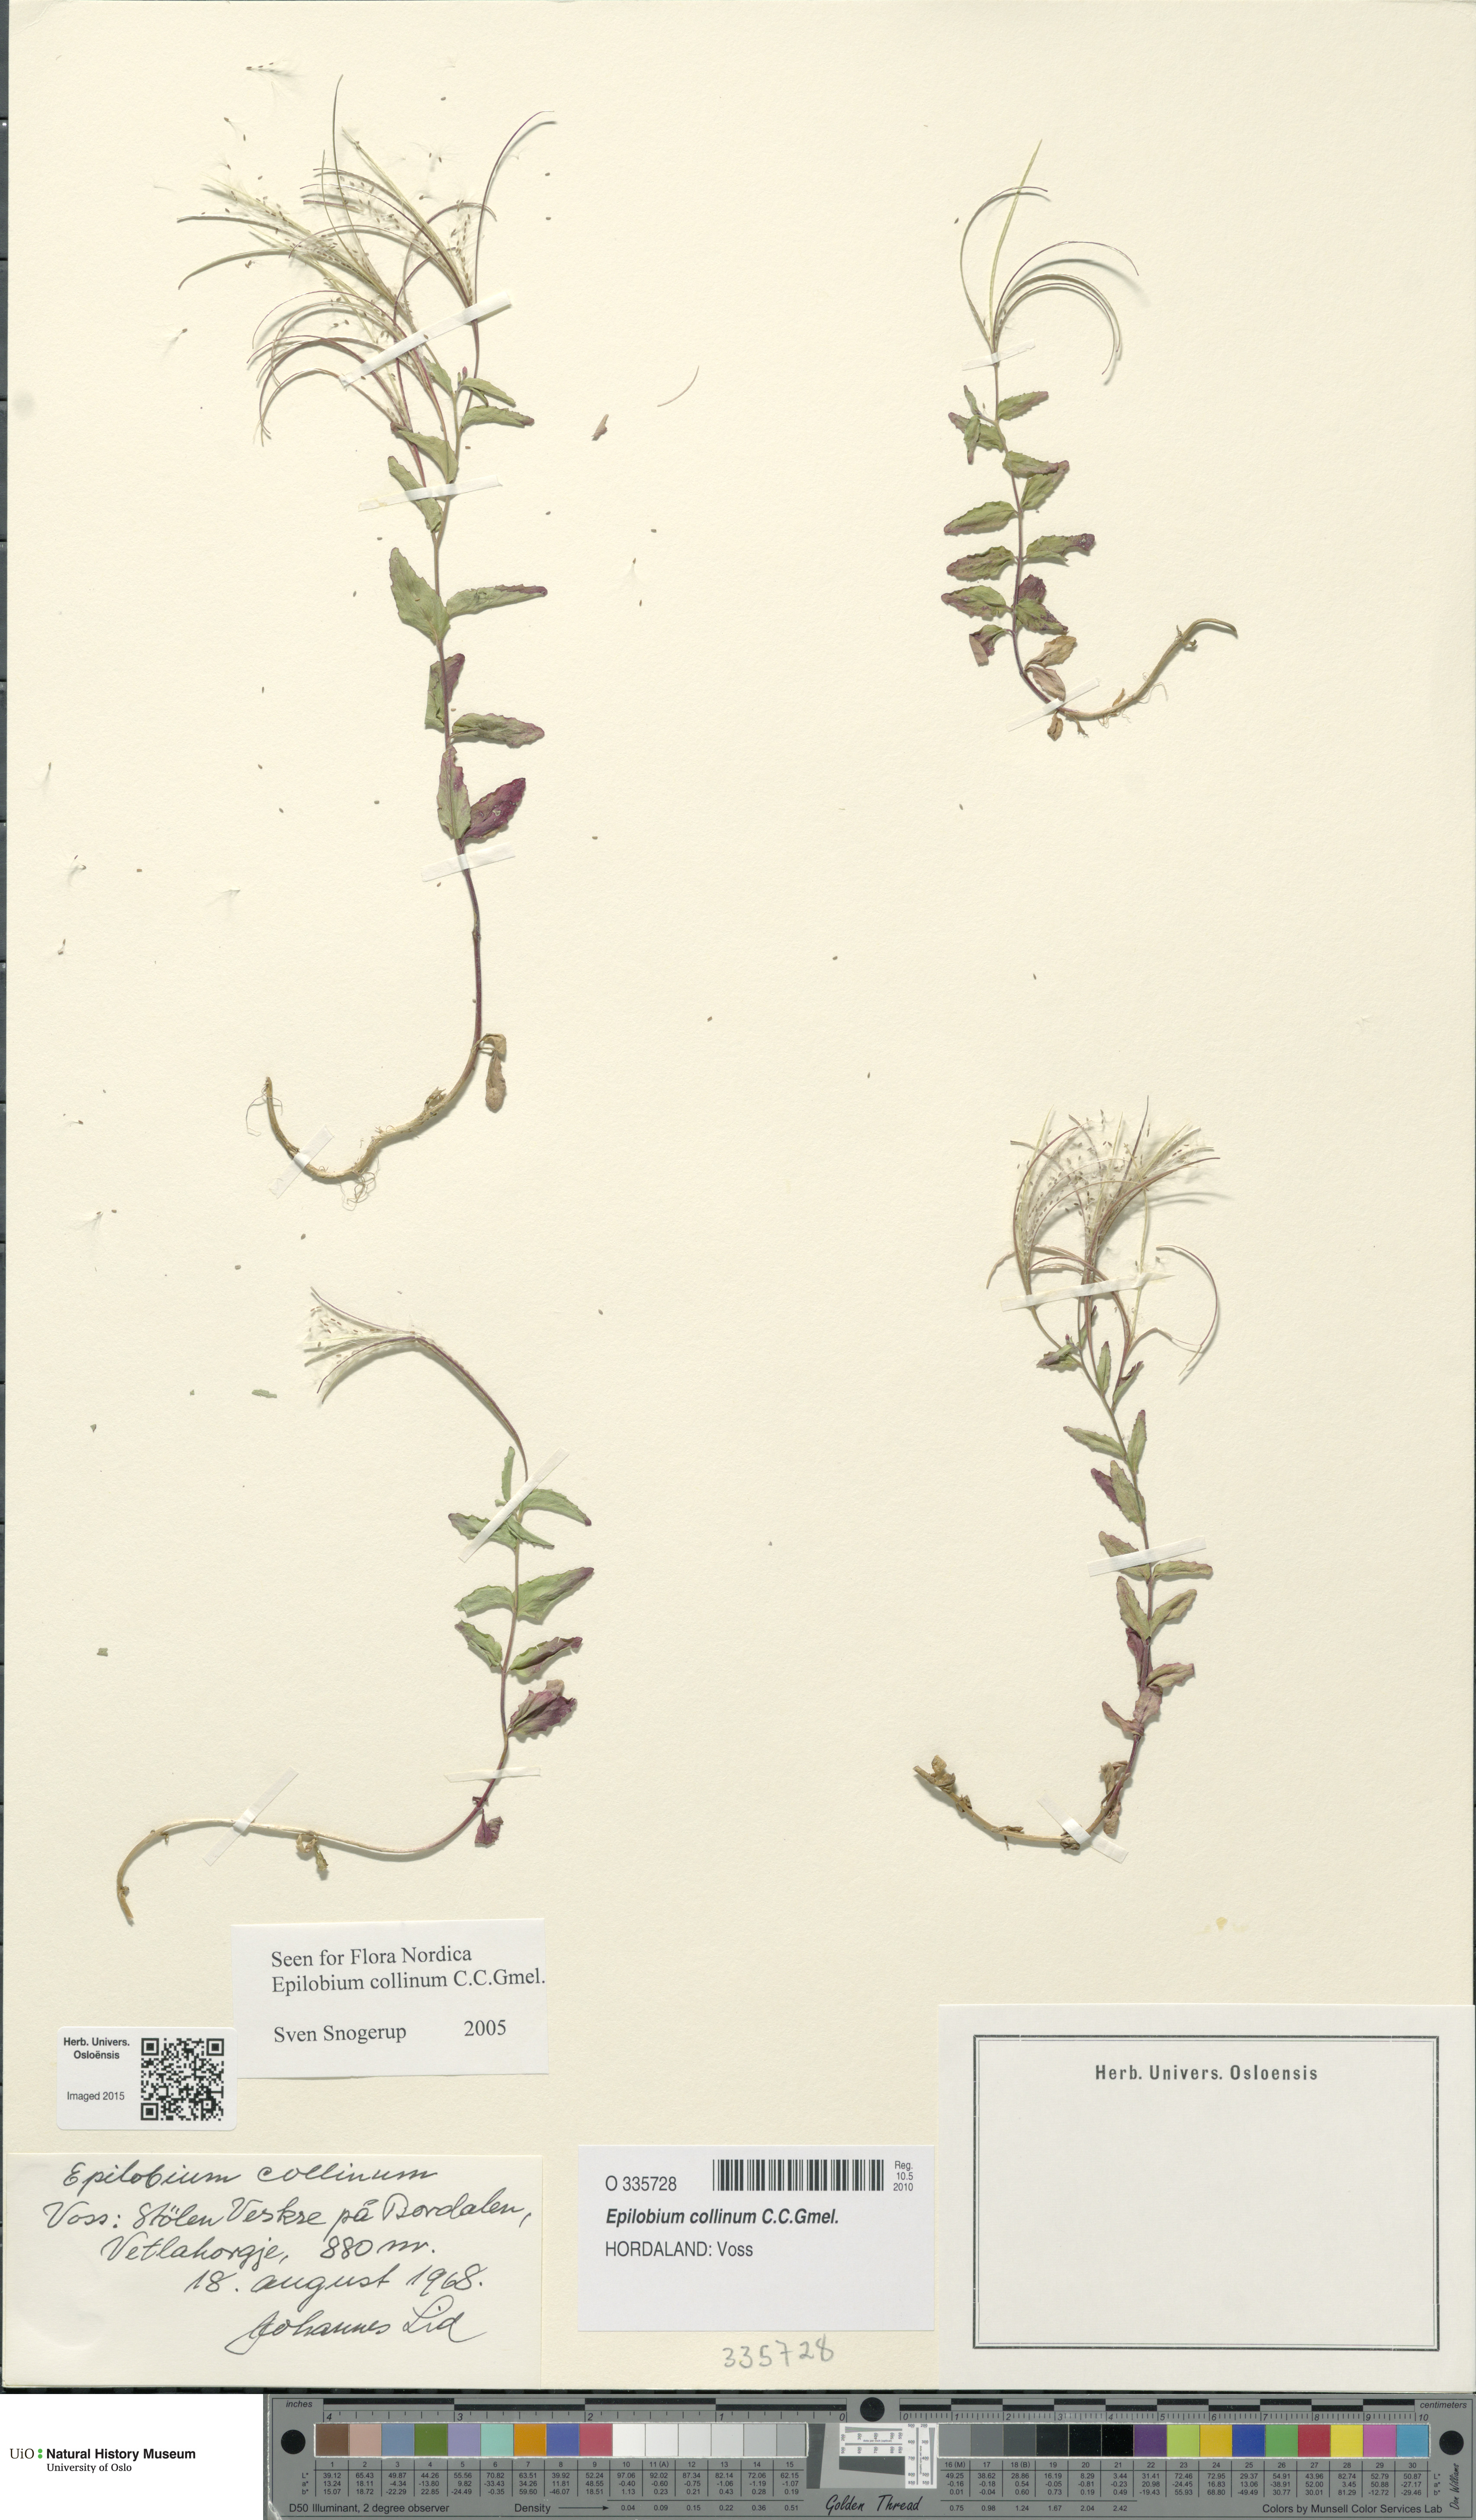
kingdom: Plantae
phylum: Tracheophyta
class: Magnoliopsida
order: Myrtales
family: Onagraceae
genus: Epilobium
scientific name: Epilobium collinum
